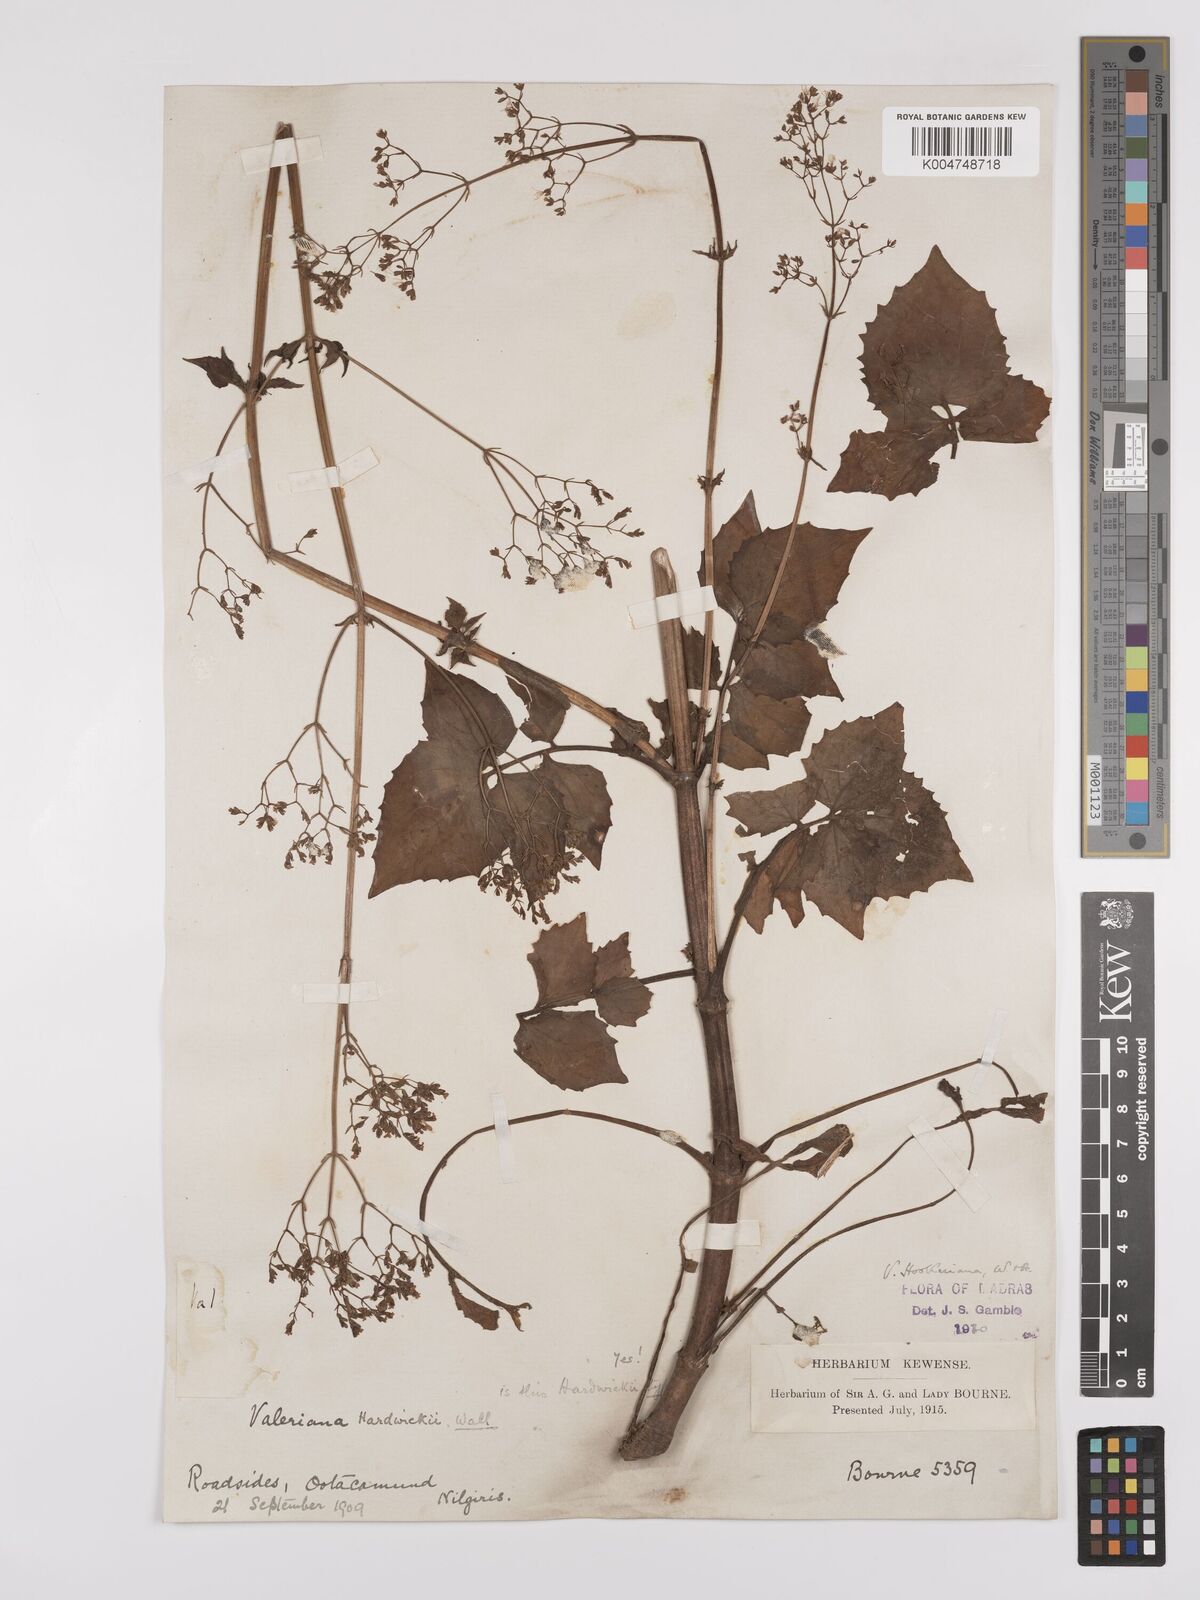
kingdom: Plantae
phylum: Tracheophyta
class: Magnoliopsida
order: Dipsacales
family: Caprifoliaceae
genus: Valeriana
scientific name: Valeriana hardwickei
